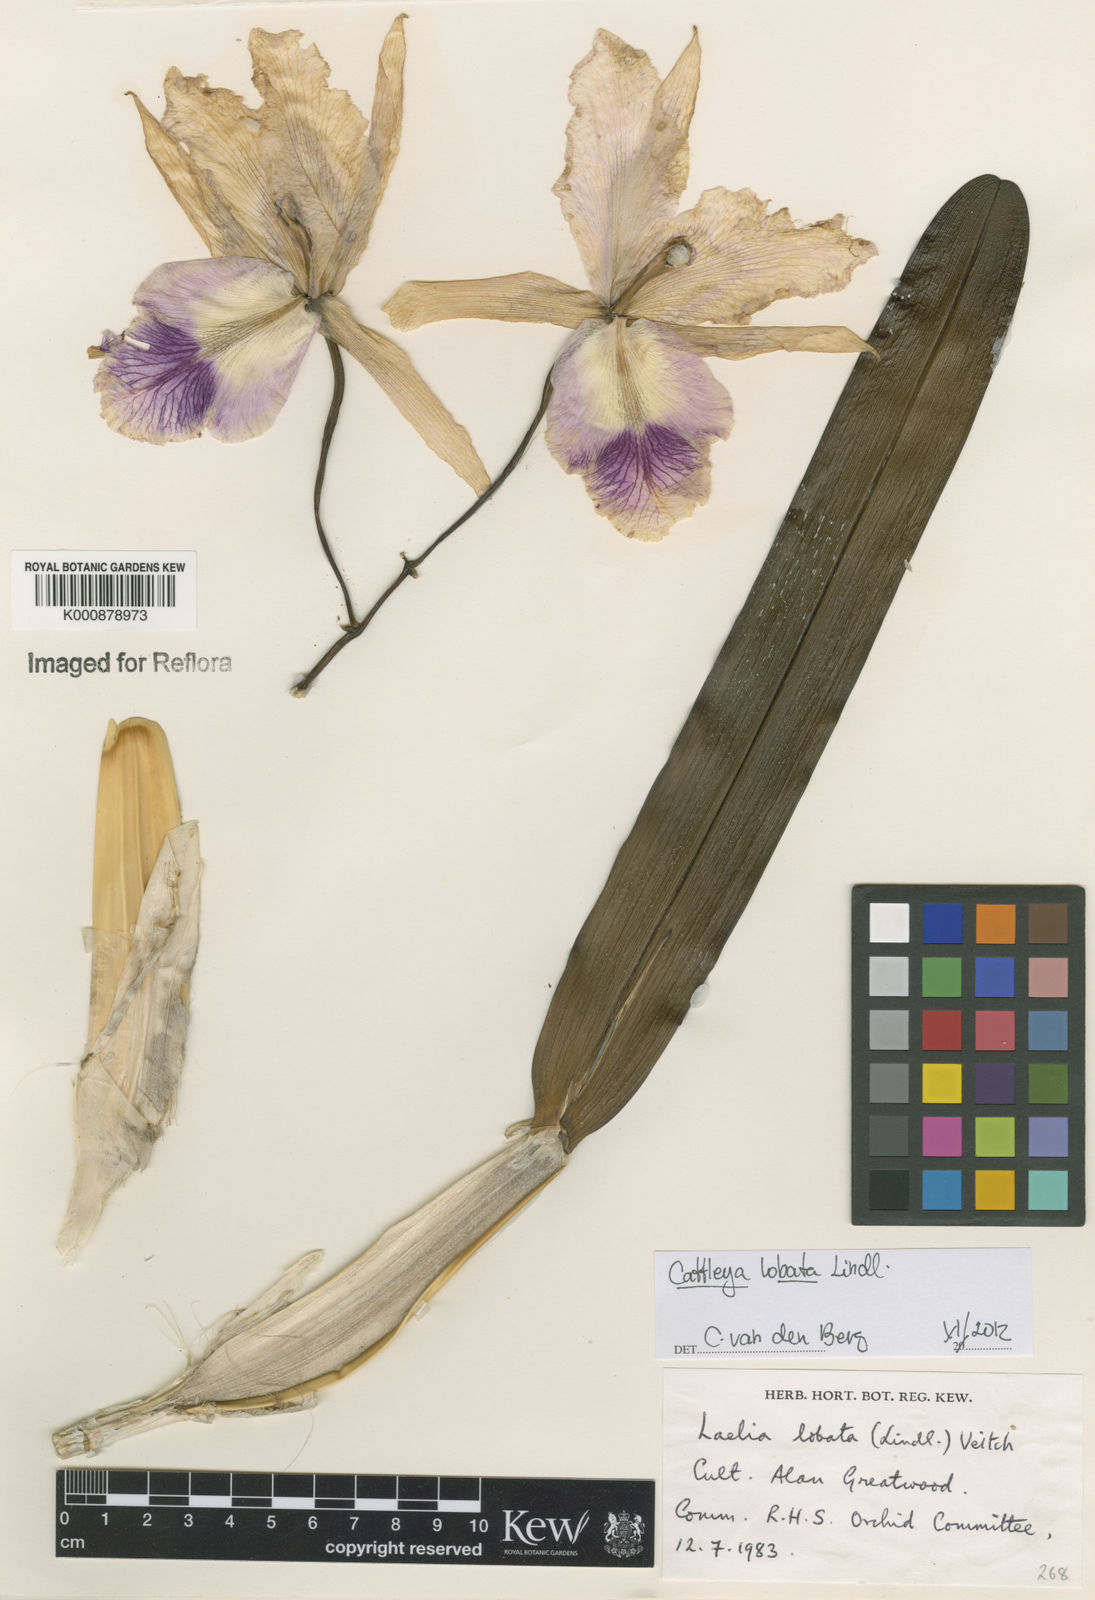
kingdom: Plantae
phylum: Tracheophyta
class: Liliopsida
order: Asparagales
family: Orchidaceae
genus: Cattleya
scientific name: Cattleya lobata
